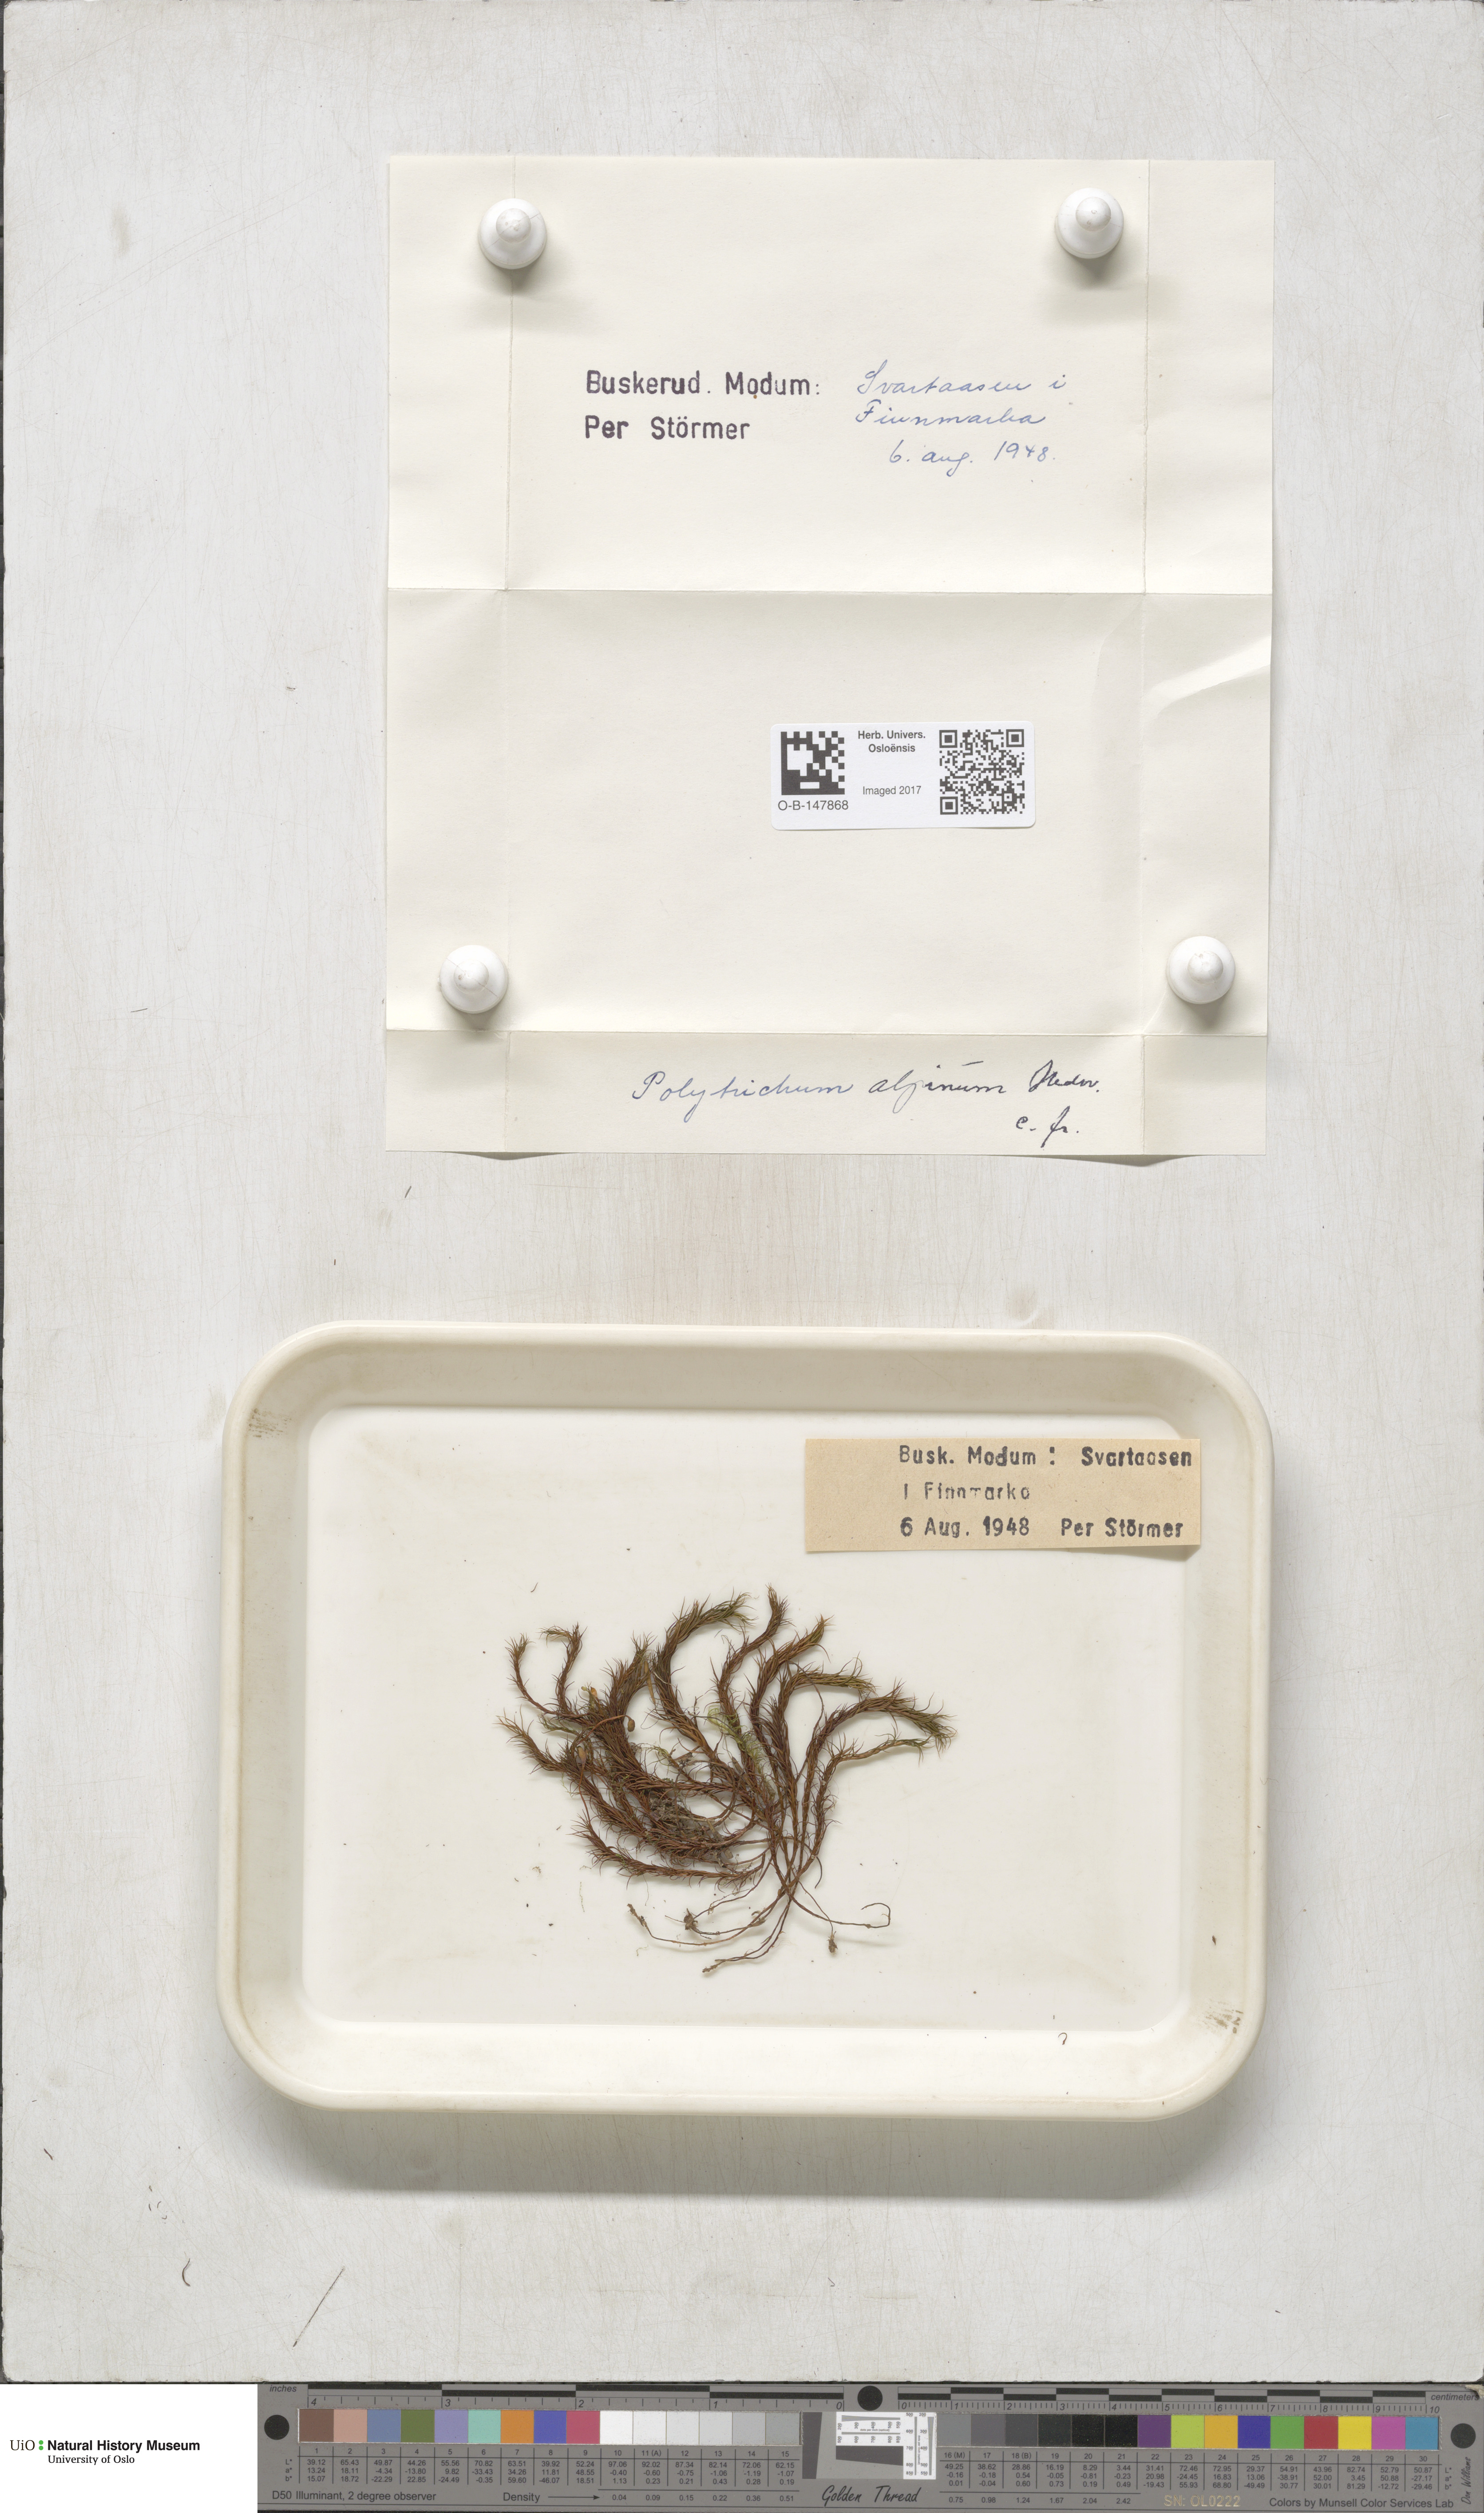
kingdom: Plantae
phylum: Bryophyta
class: Polytrichopsida
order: Polytrichales
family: Polytrichaceae
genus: Polytrichastrum
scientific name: Polytrichastrum alpinum
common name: Alpine haircap
